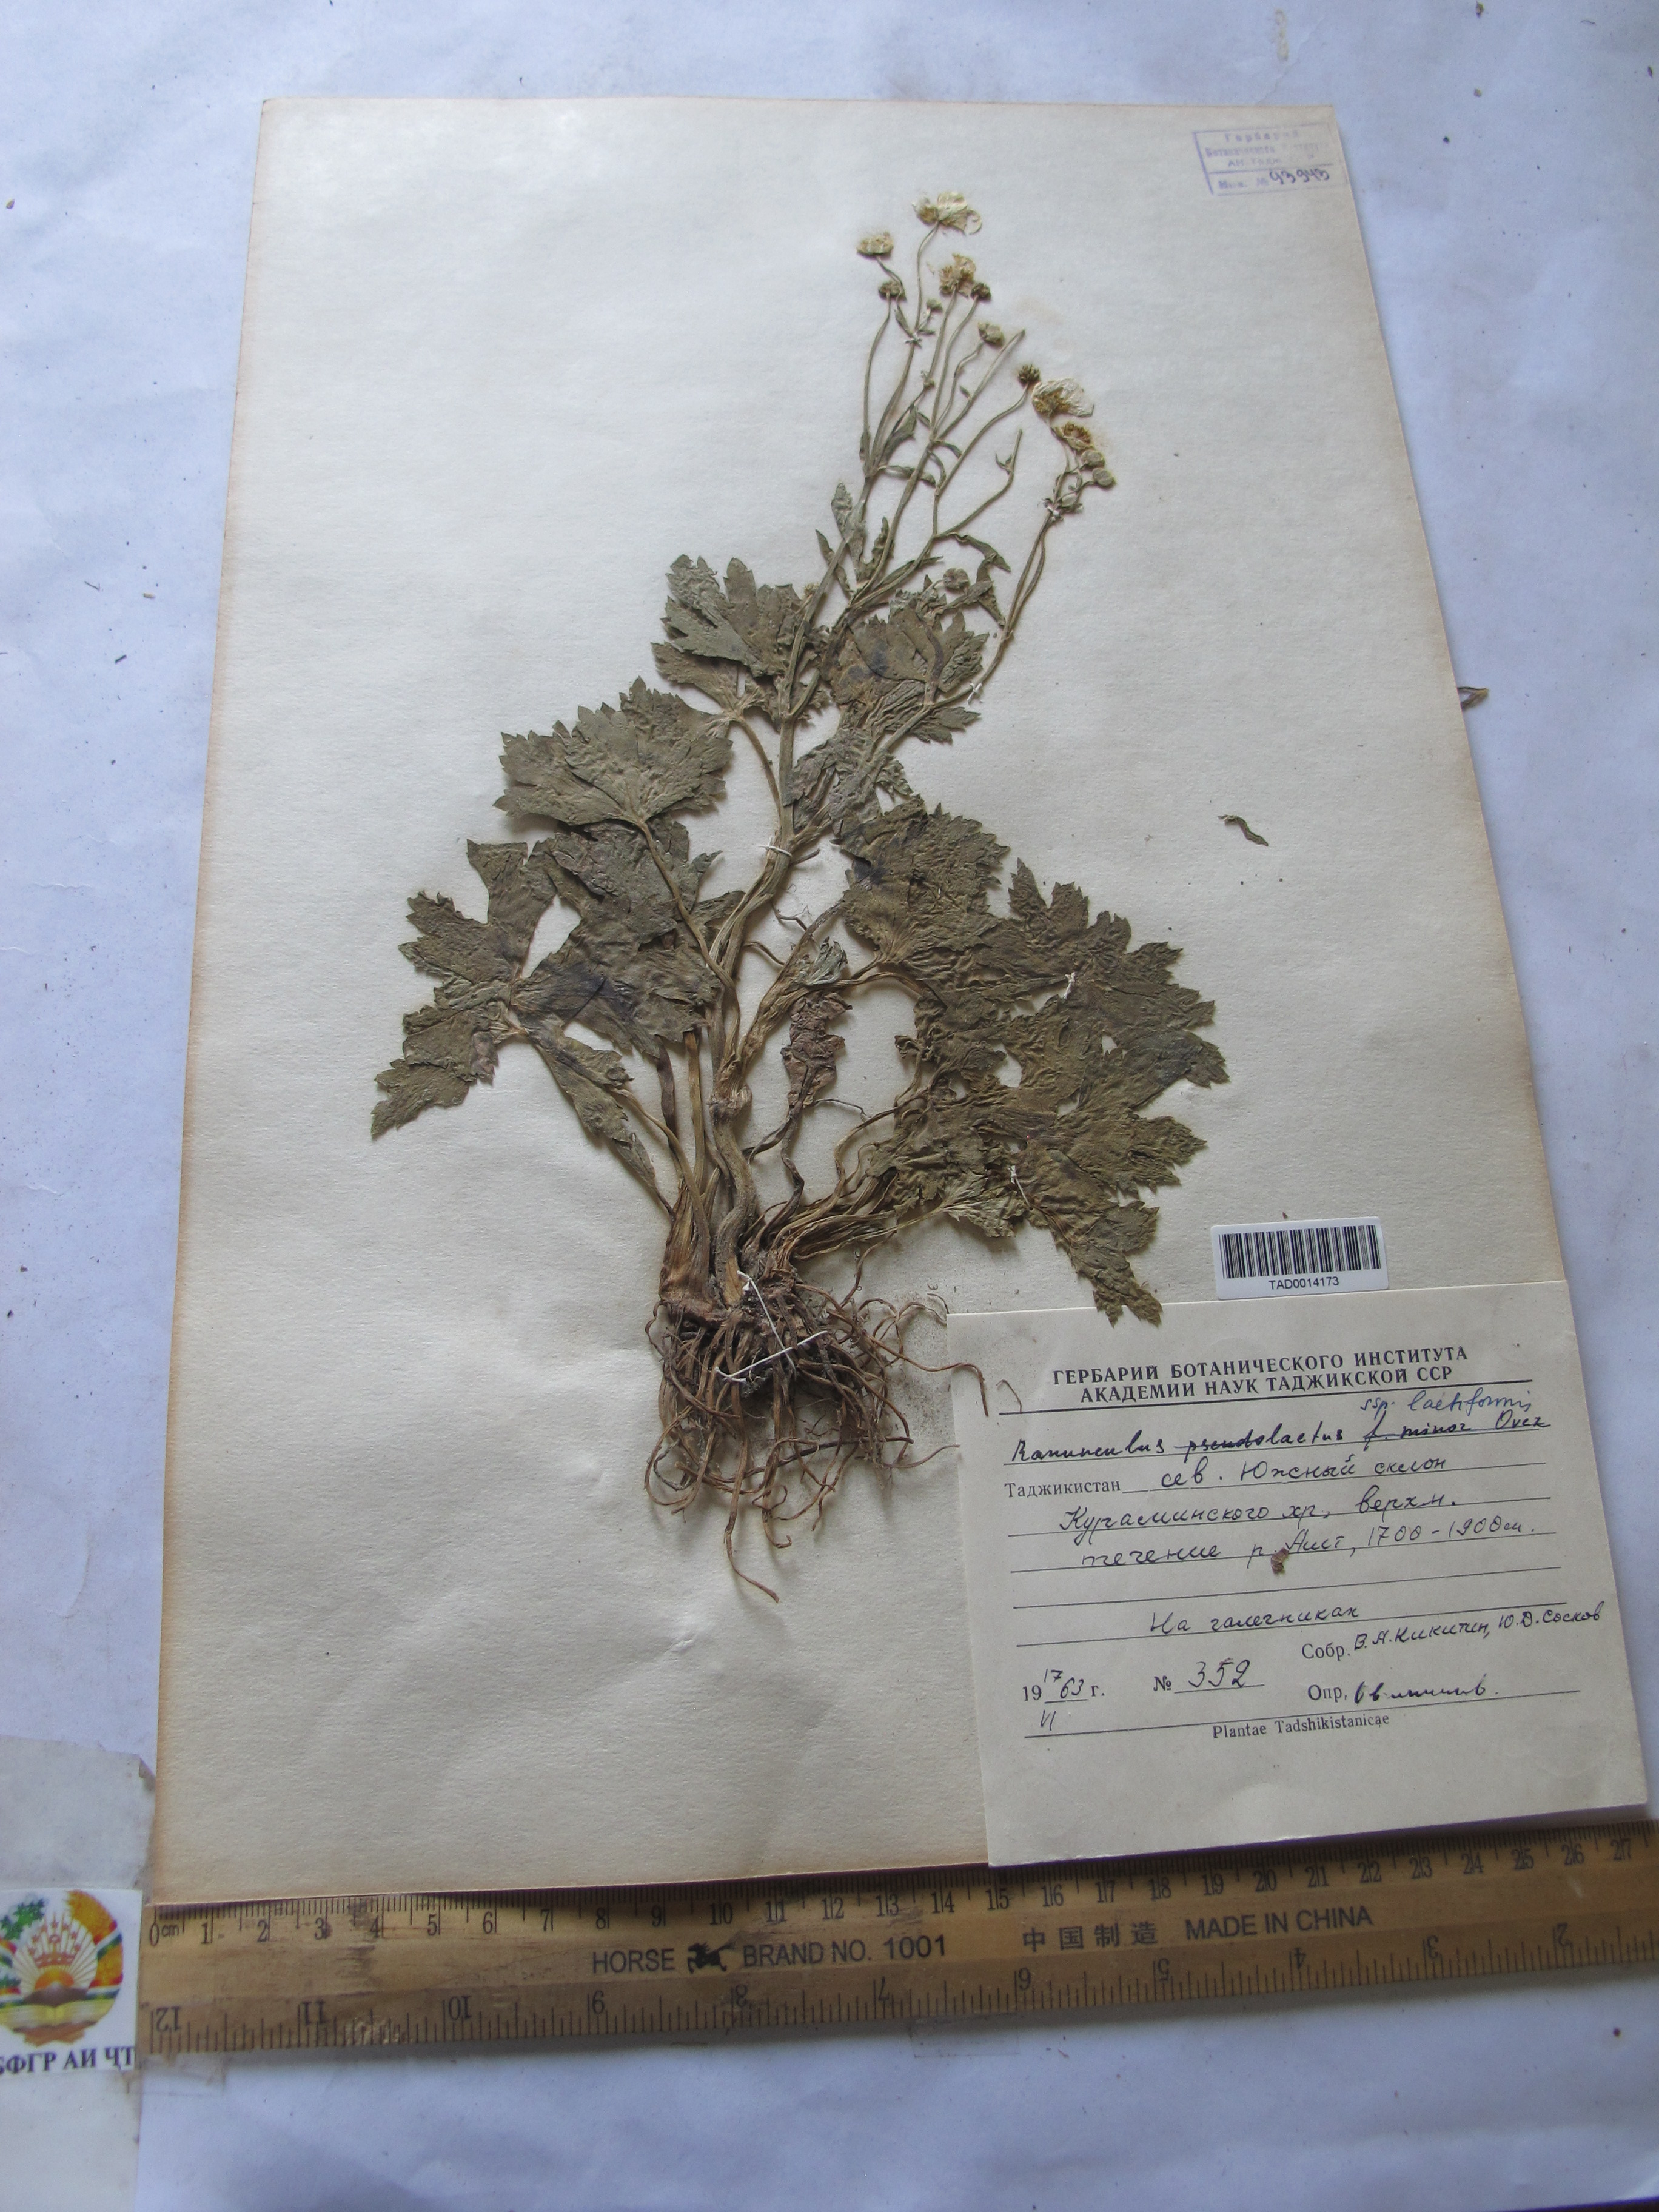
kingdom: Plantae
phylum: Tracheophyta
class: Magnoliopsida
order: Ranunculales
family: Ranunculaceae
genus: Ranunculus
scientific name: Ranunculus distans
